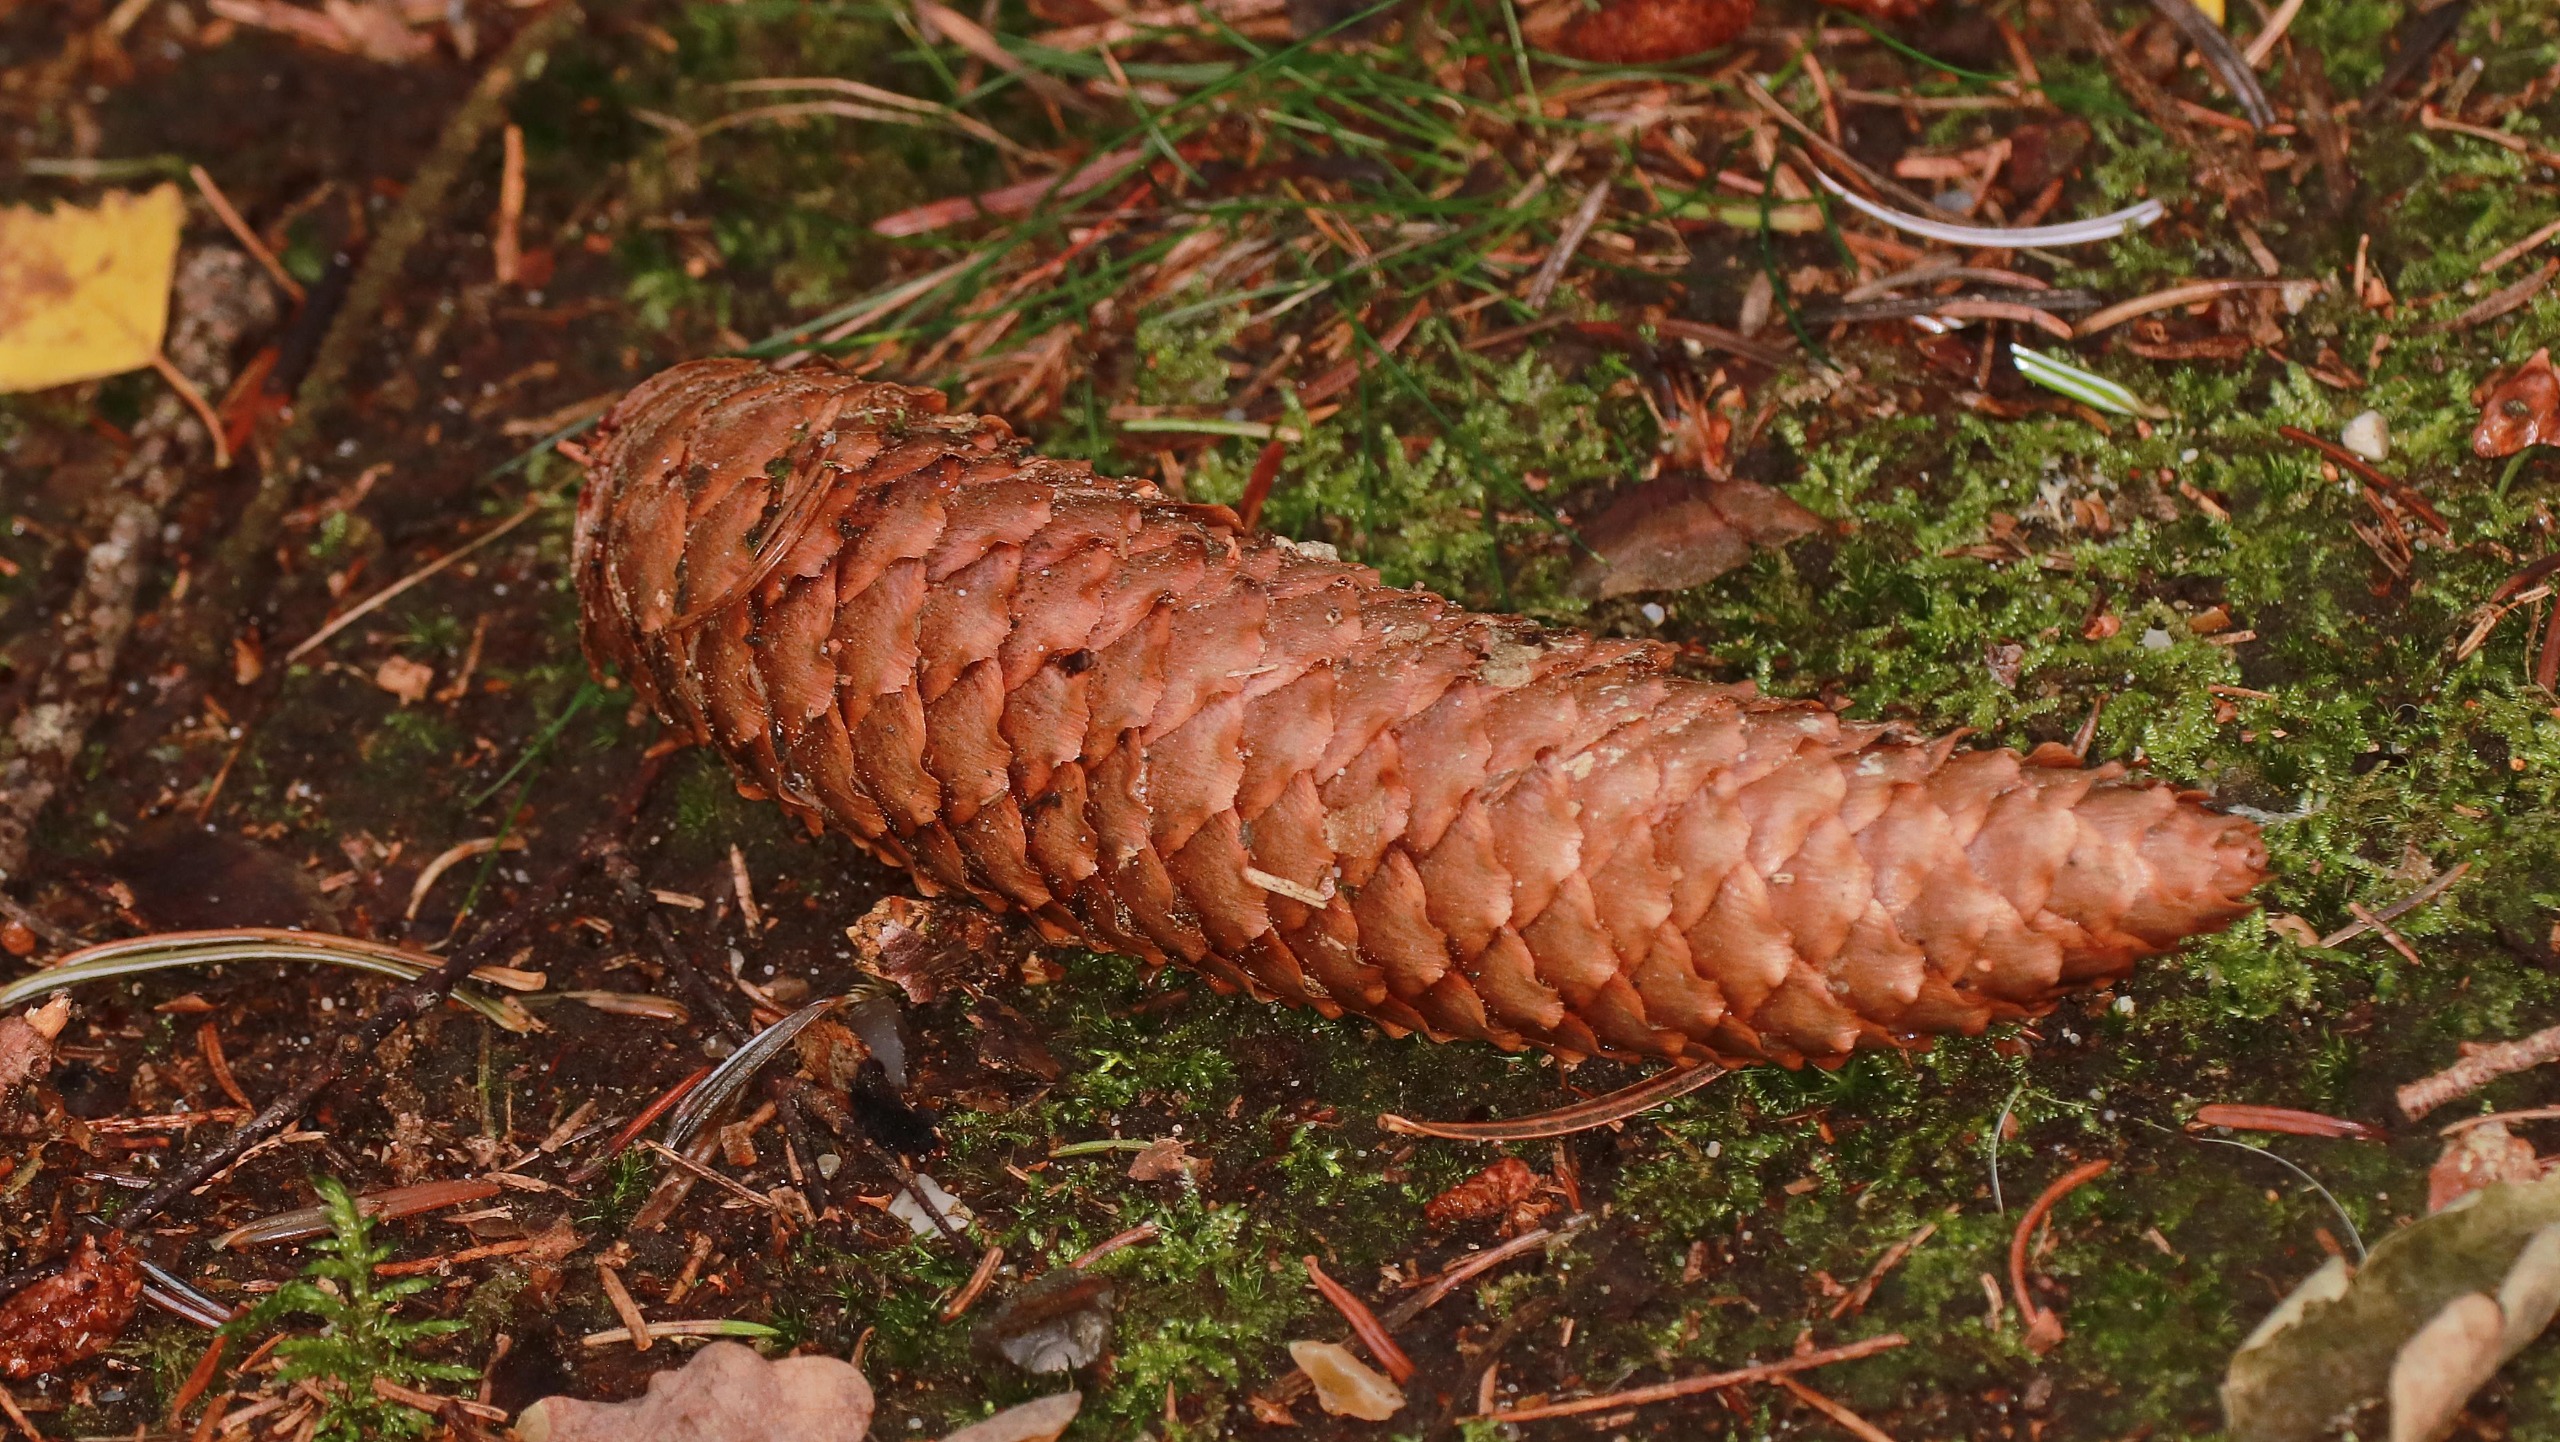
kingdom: Plantae
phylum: Tracheophyta
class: Pinopsida
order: Pinales
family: Pinaceae
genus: Picea
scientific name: Picea abies
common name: Rød-gran
